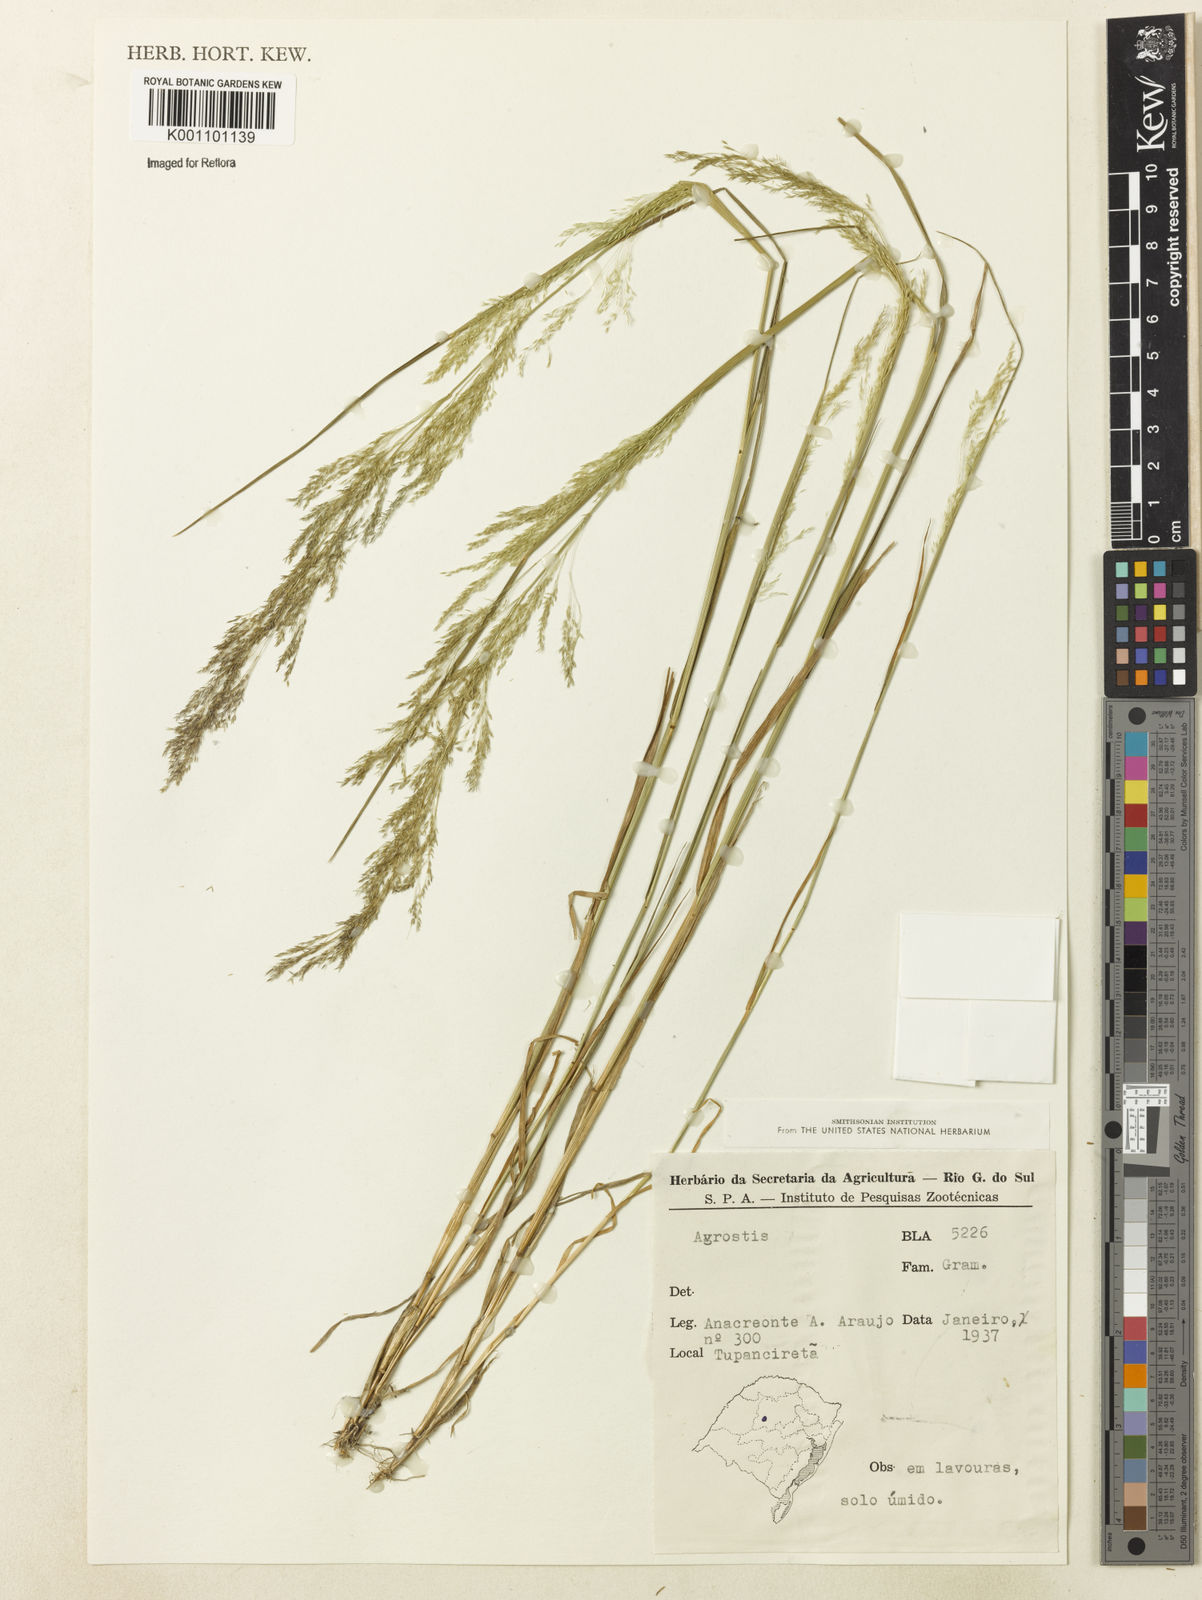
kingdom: Plantae
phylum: Tracheophyta
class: Liliopsida
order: Poales
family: Poaceae
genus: Agrostis
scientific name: Agrostis
